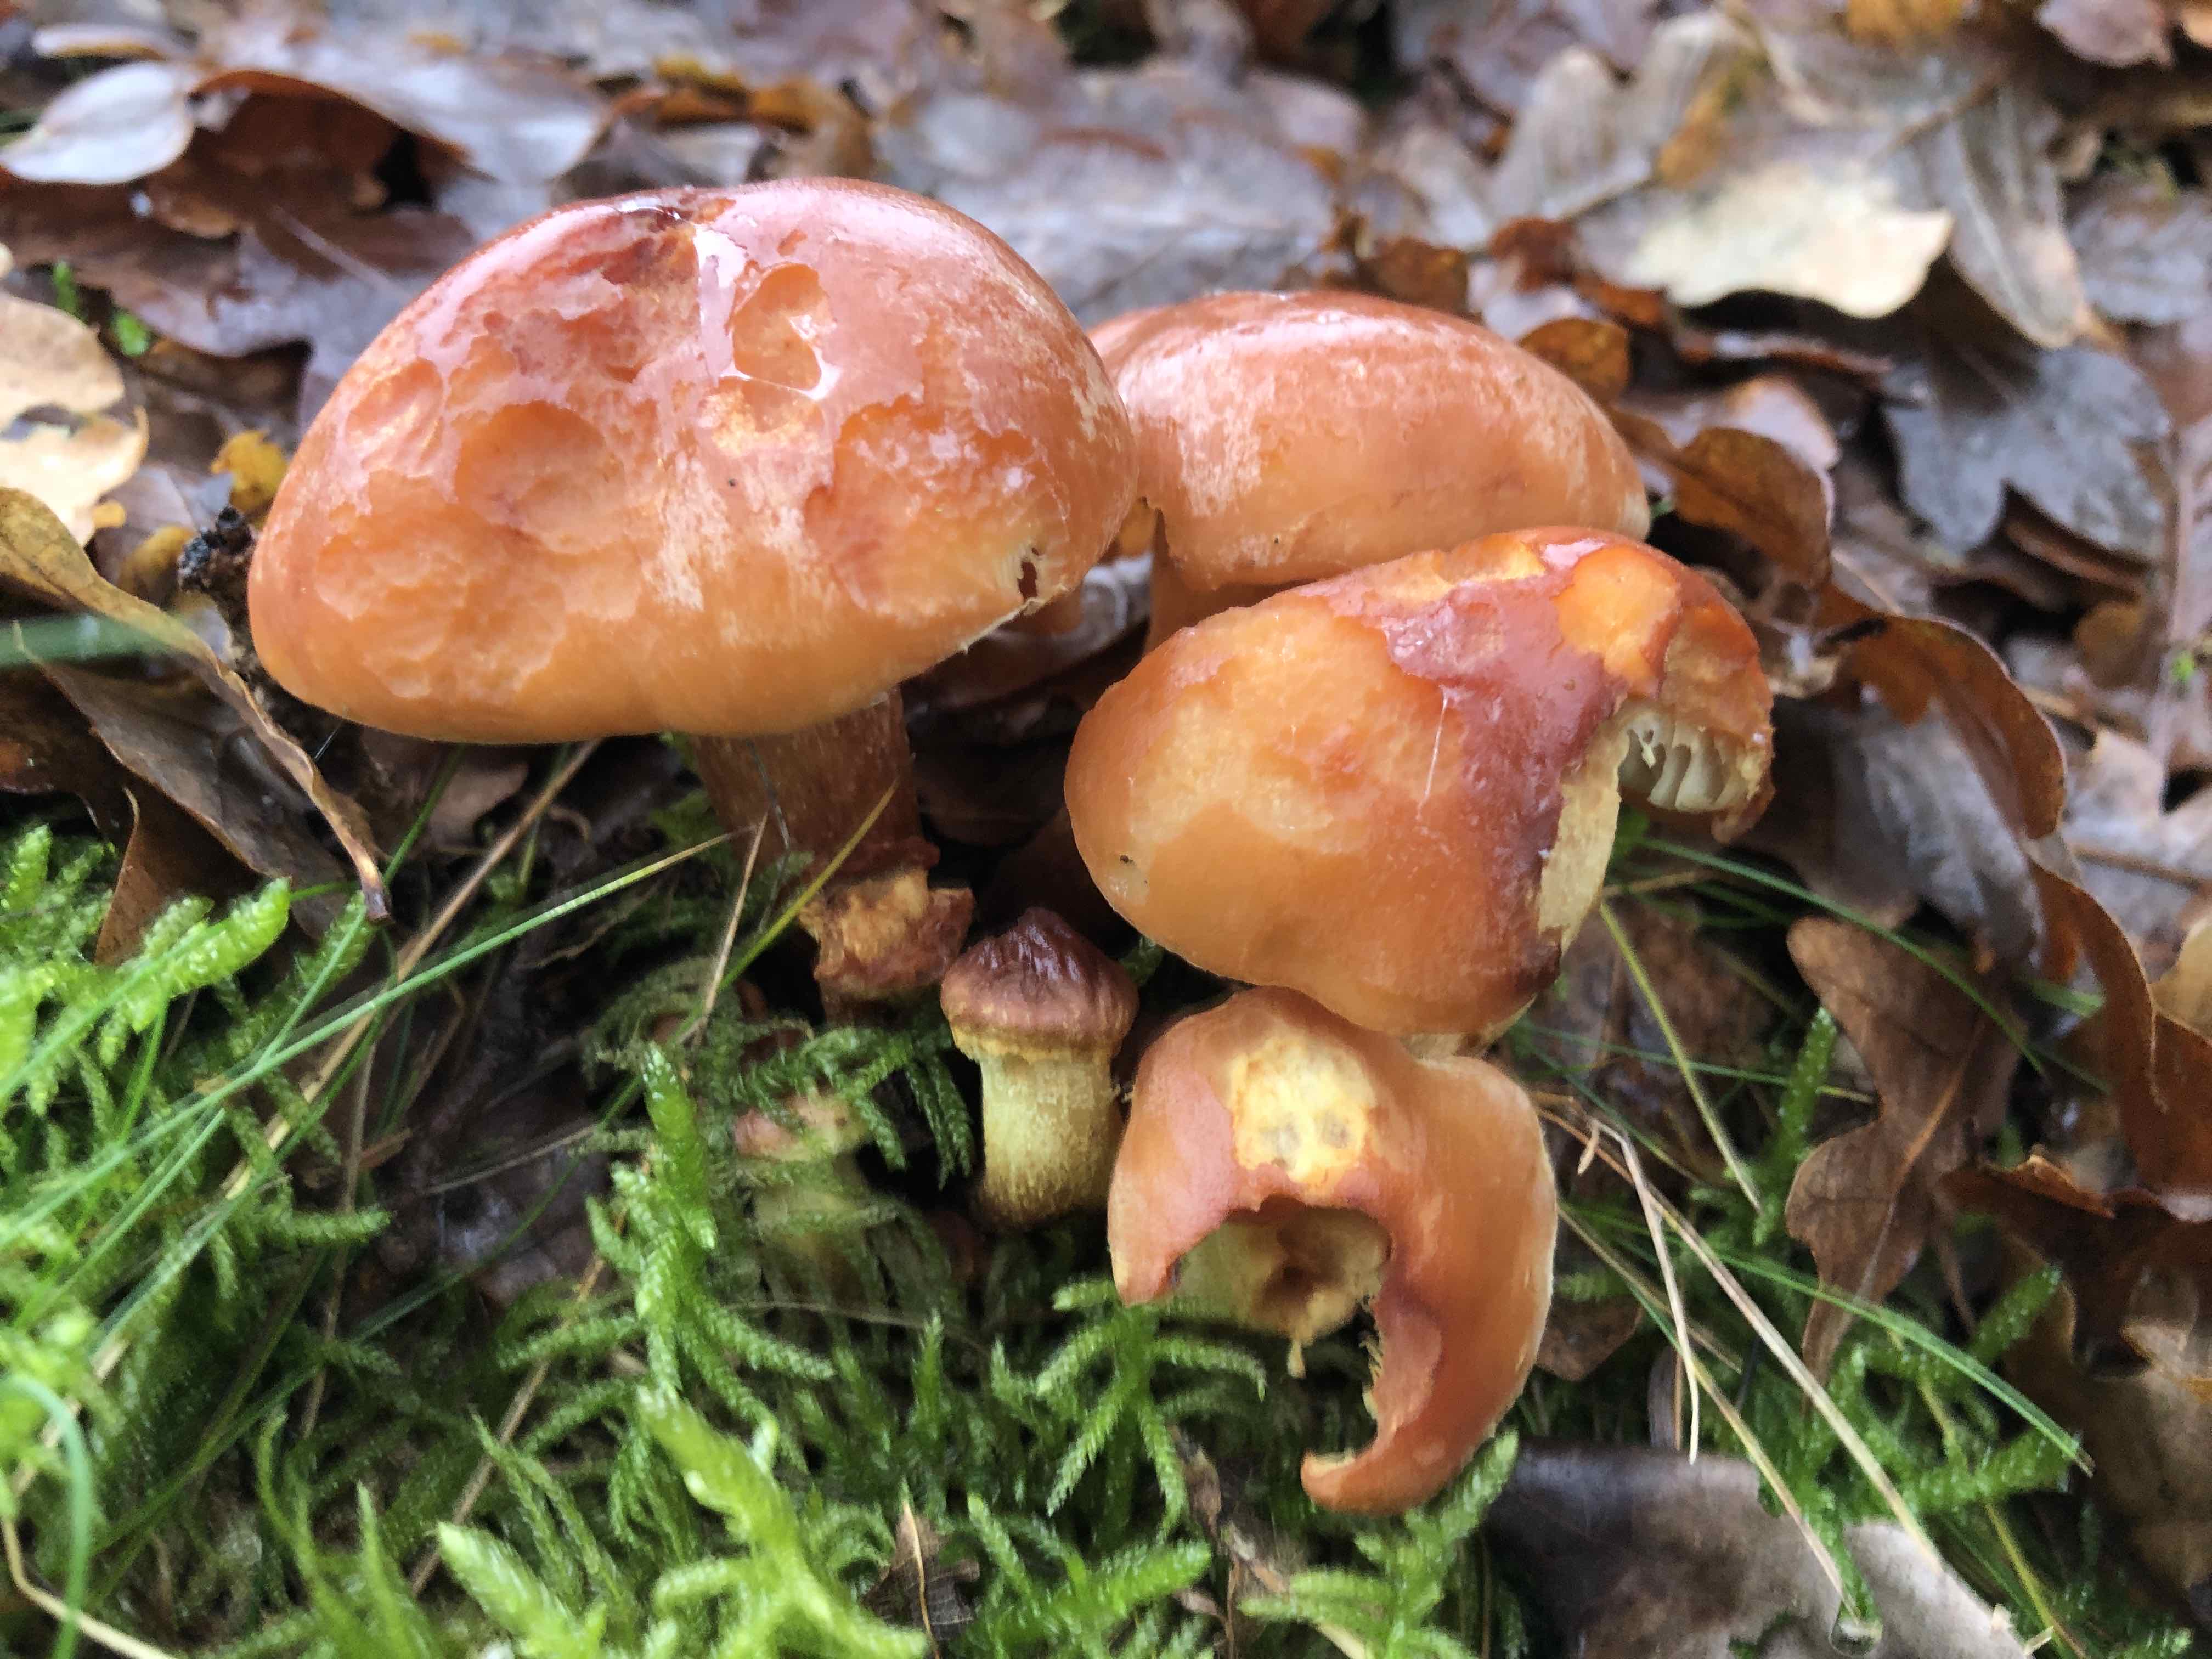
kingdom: Fungi
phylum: Basidiomycota
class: Agaricomycetes
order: Agaricales
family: Strophariaceae
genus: Hypholoma
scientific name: Hypholoma lateritium
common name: teglrød svovlhat
